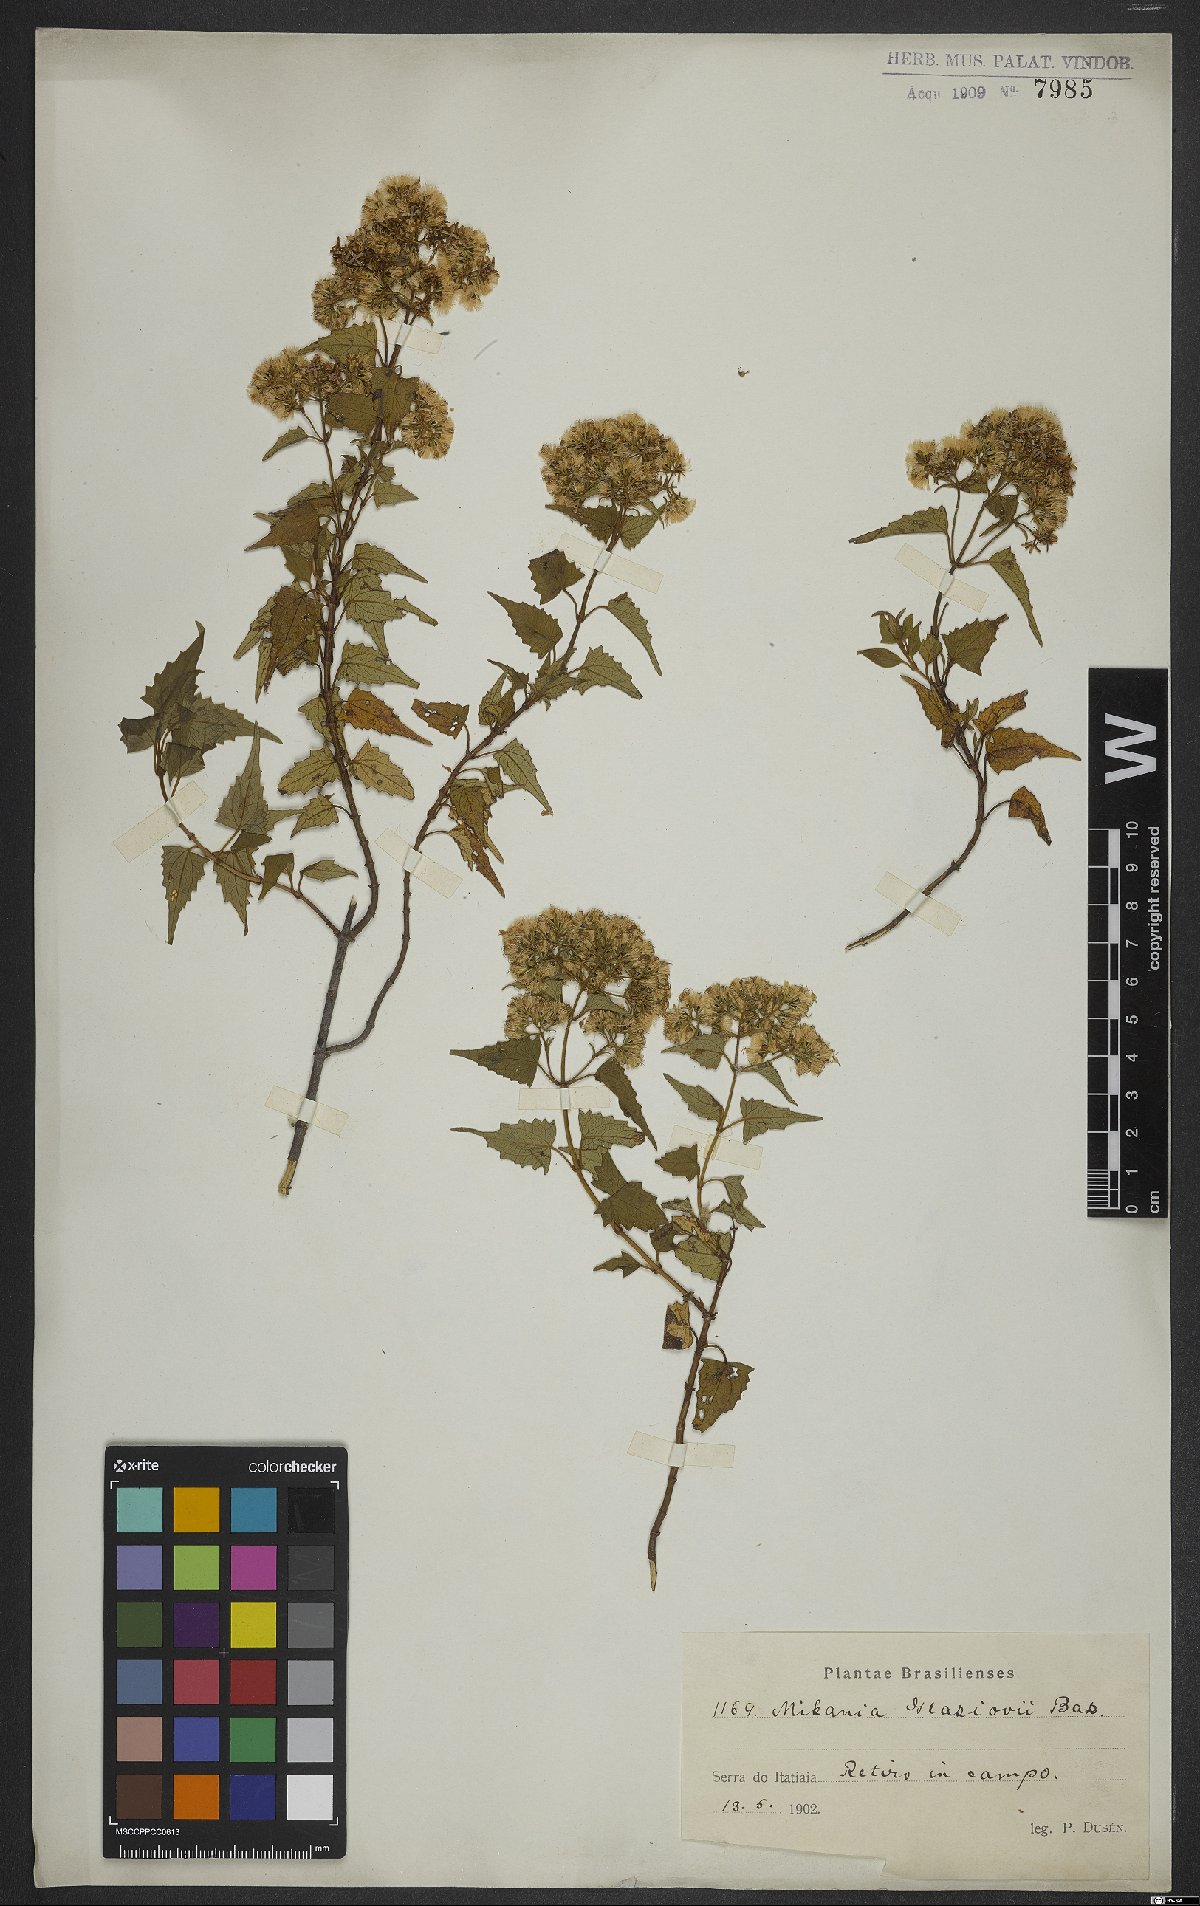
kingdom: Plantae
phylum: Tracheophyta
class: Magnoliopsida
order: Asterales
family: Asteraceae
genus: Mikania
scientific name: Mikania glaziovii
